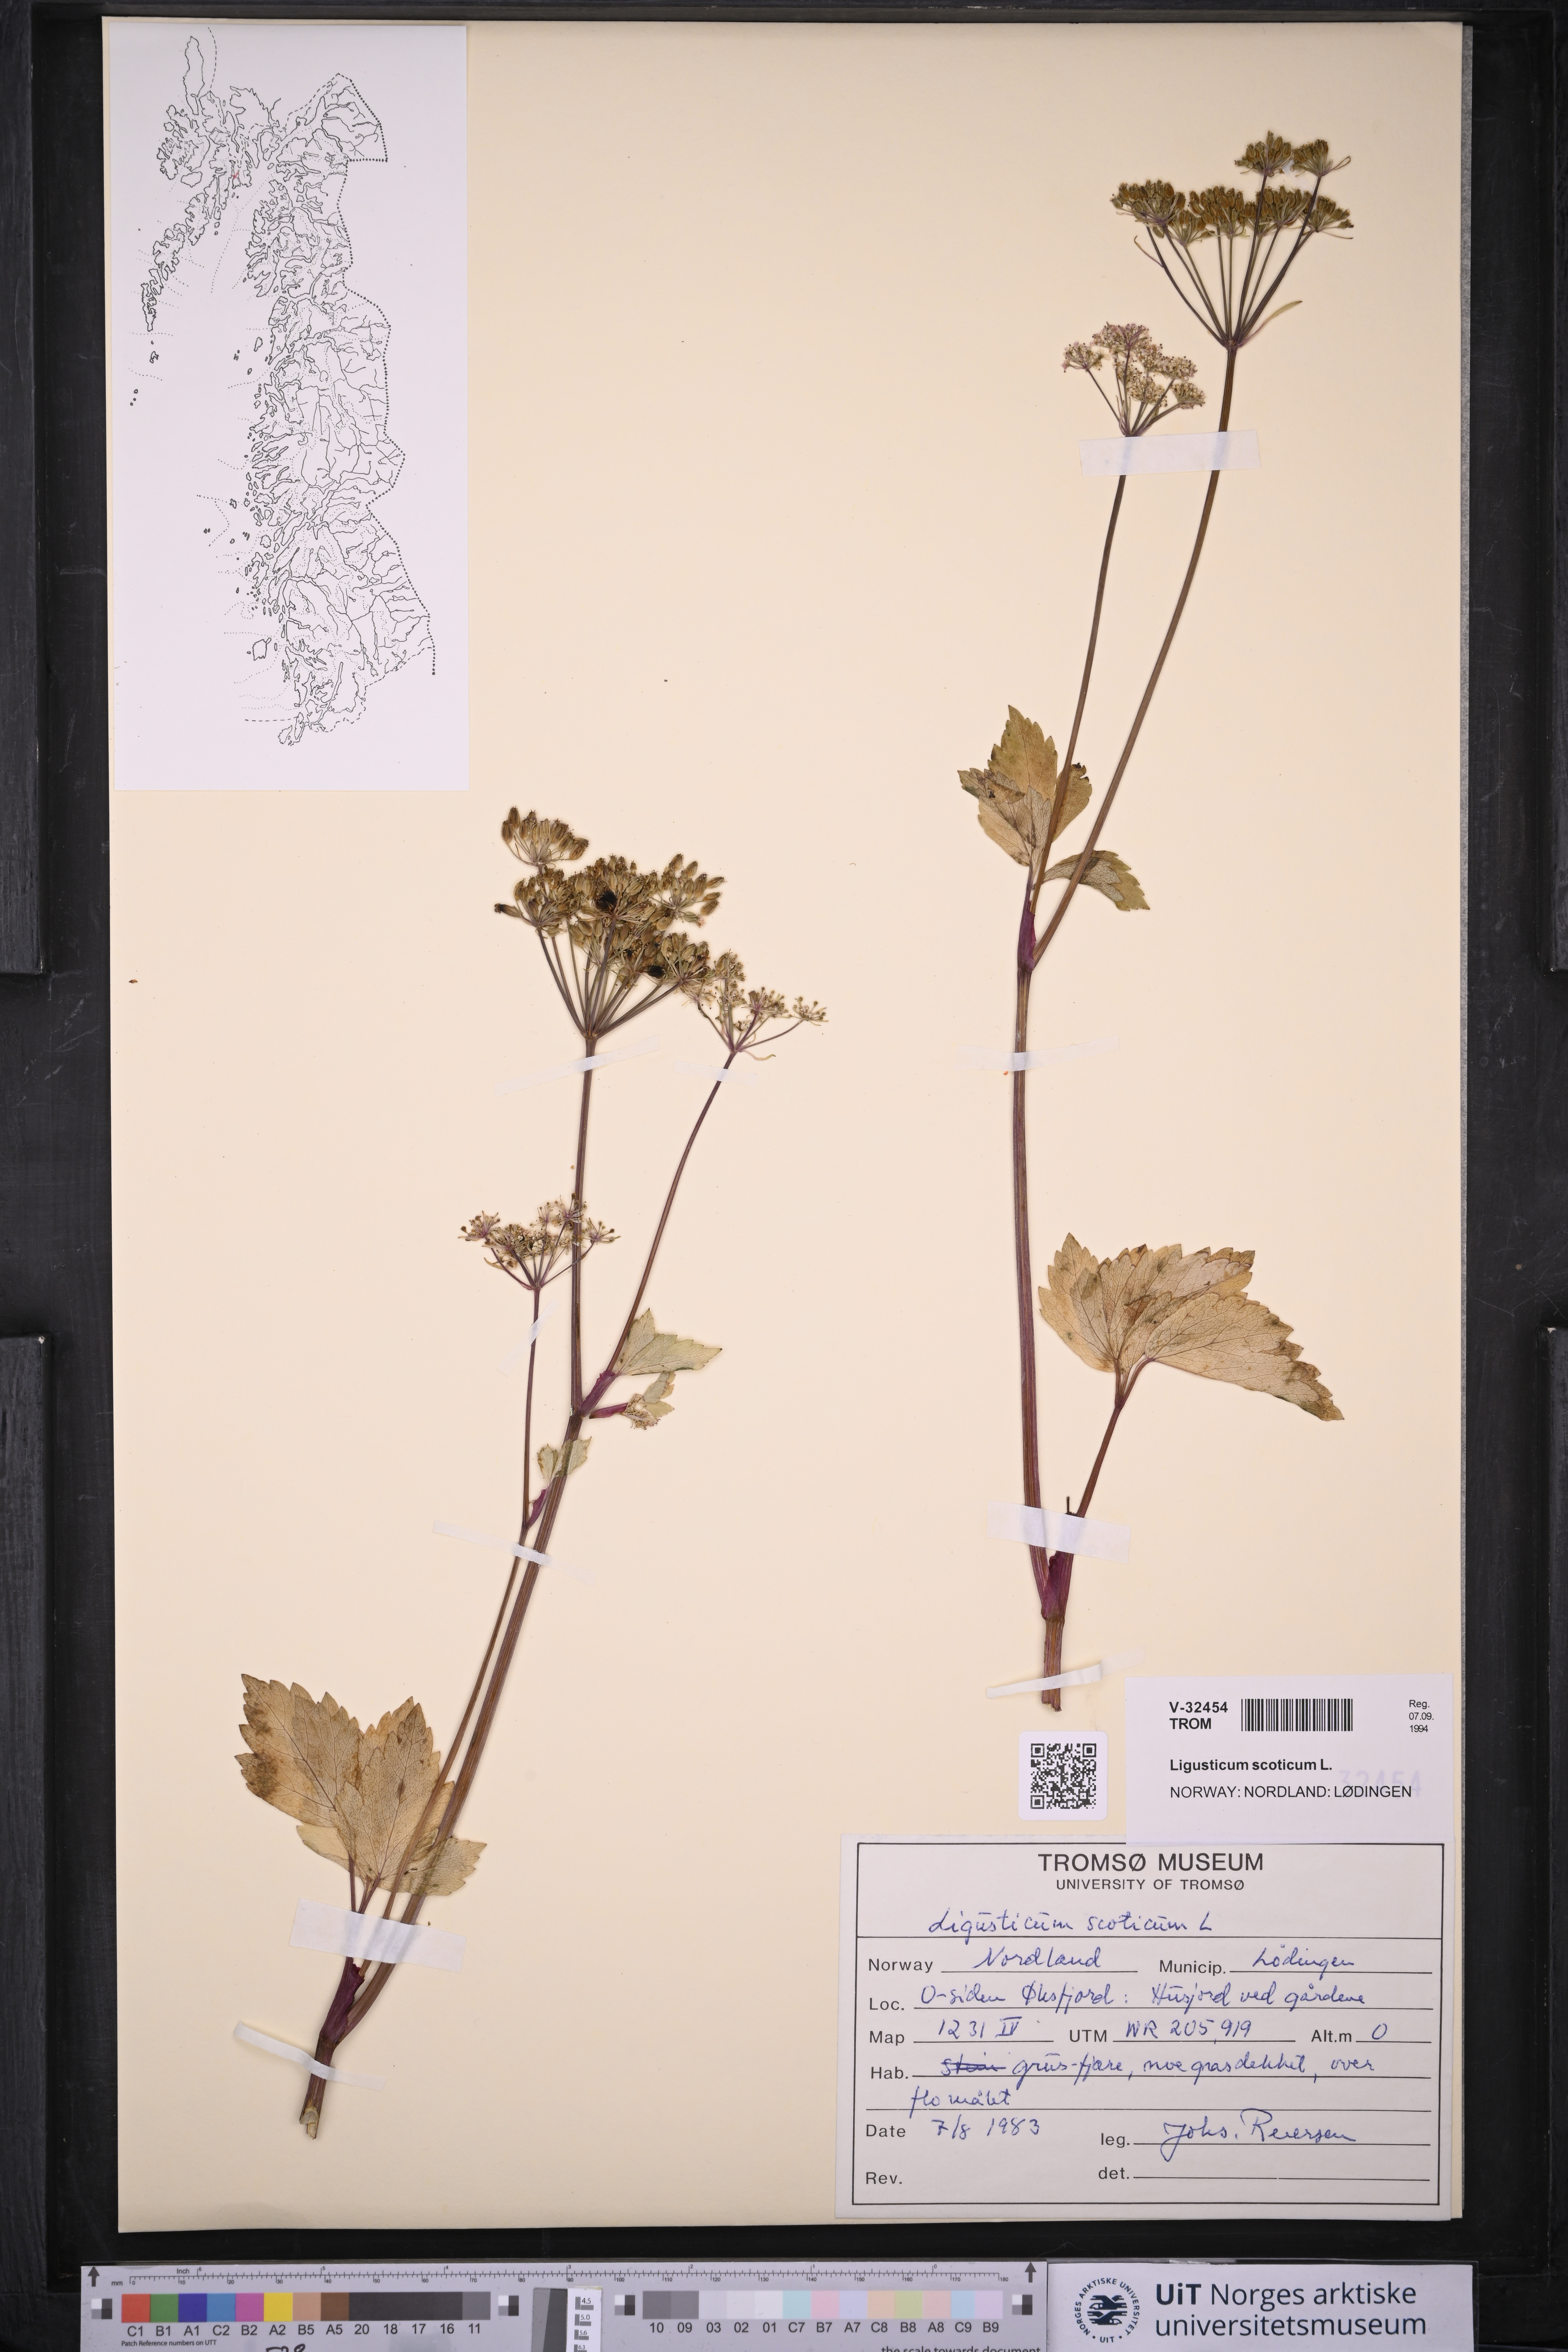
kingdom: Plantae
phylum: Tracheophyta
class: Magnoliopsida
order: Apiales
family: Apiaceae
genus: Ligusticum
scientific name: Ligusticum scothicum
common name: Beach lovage
